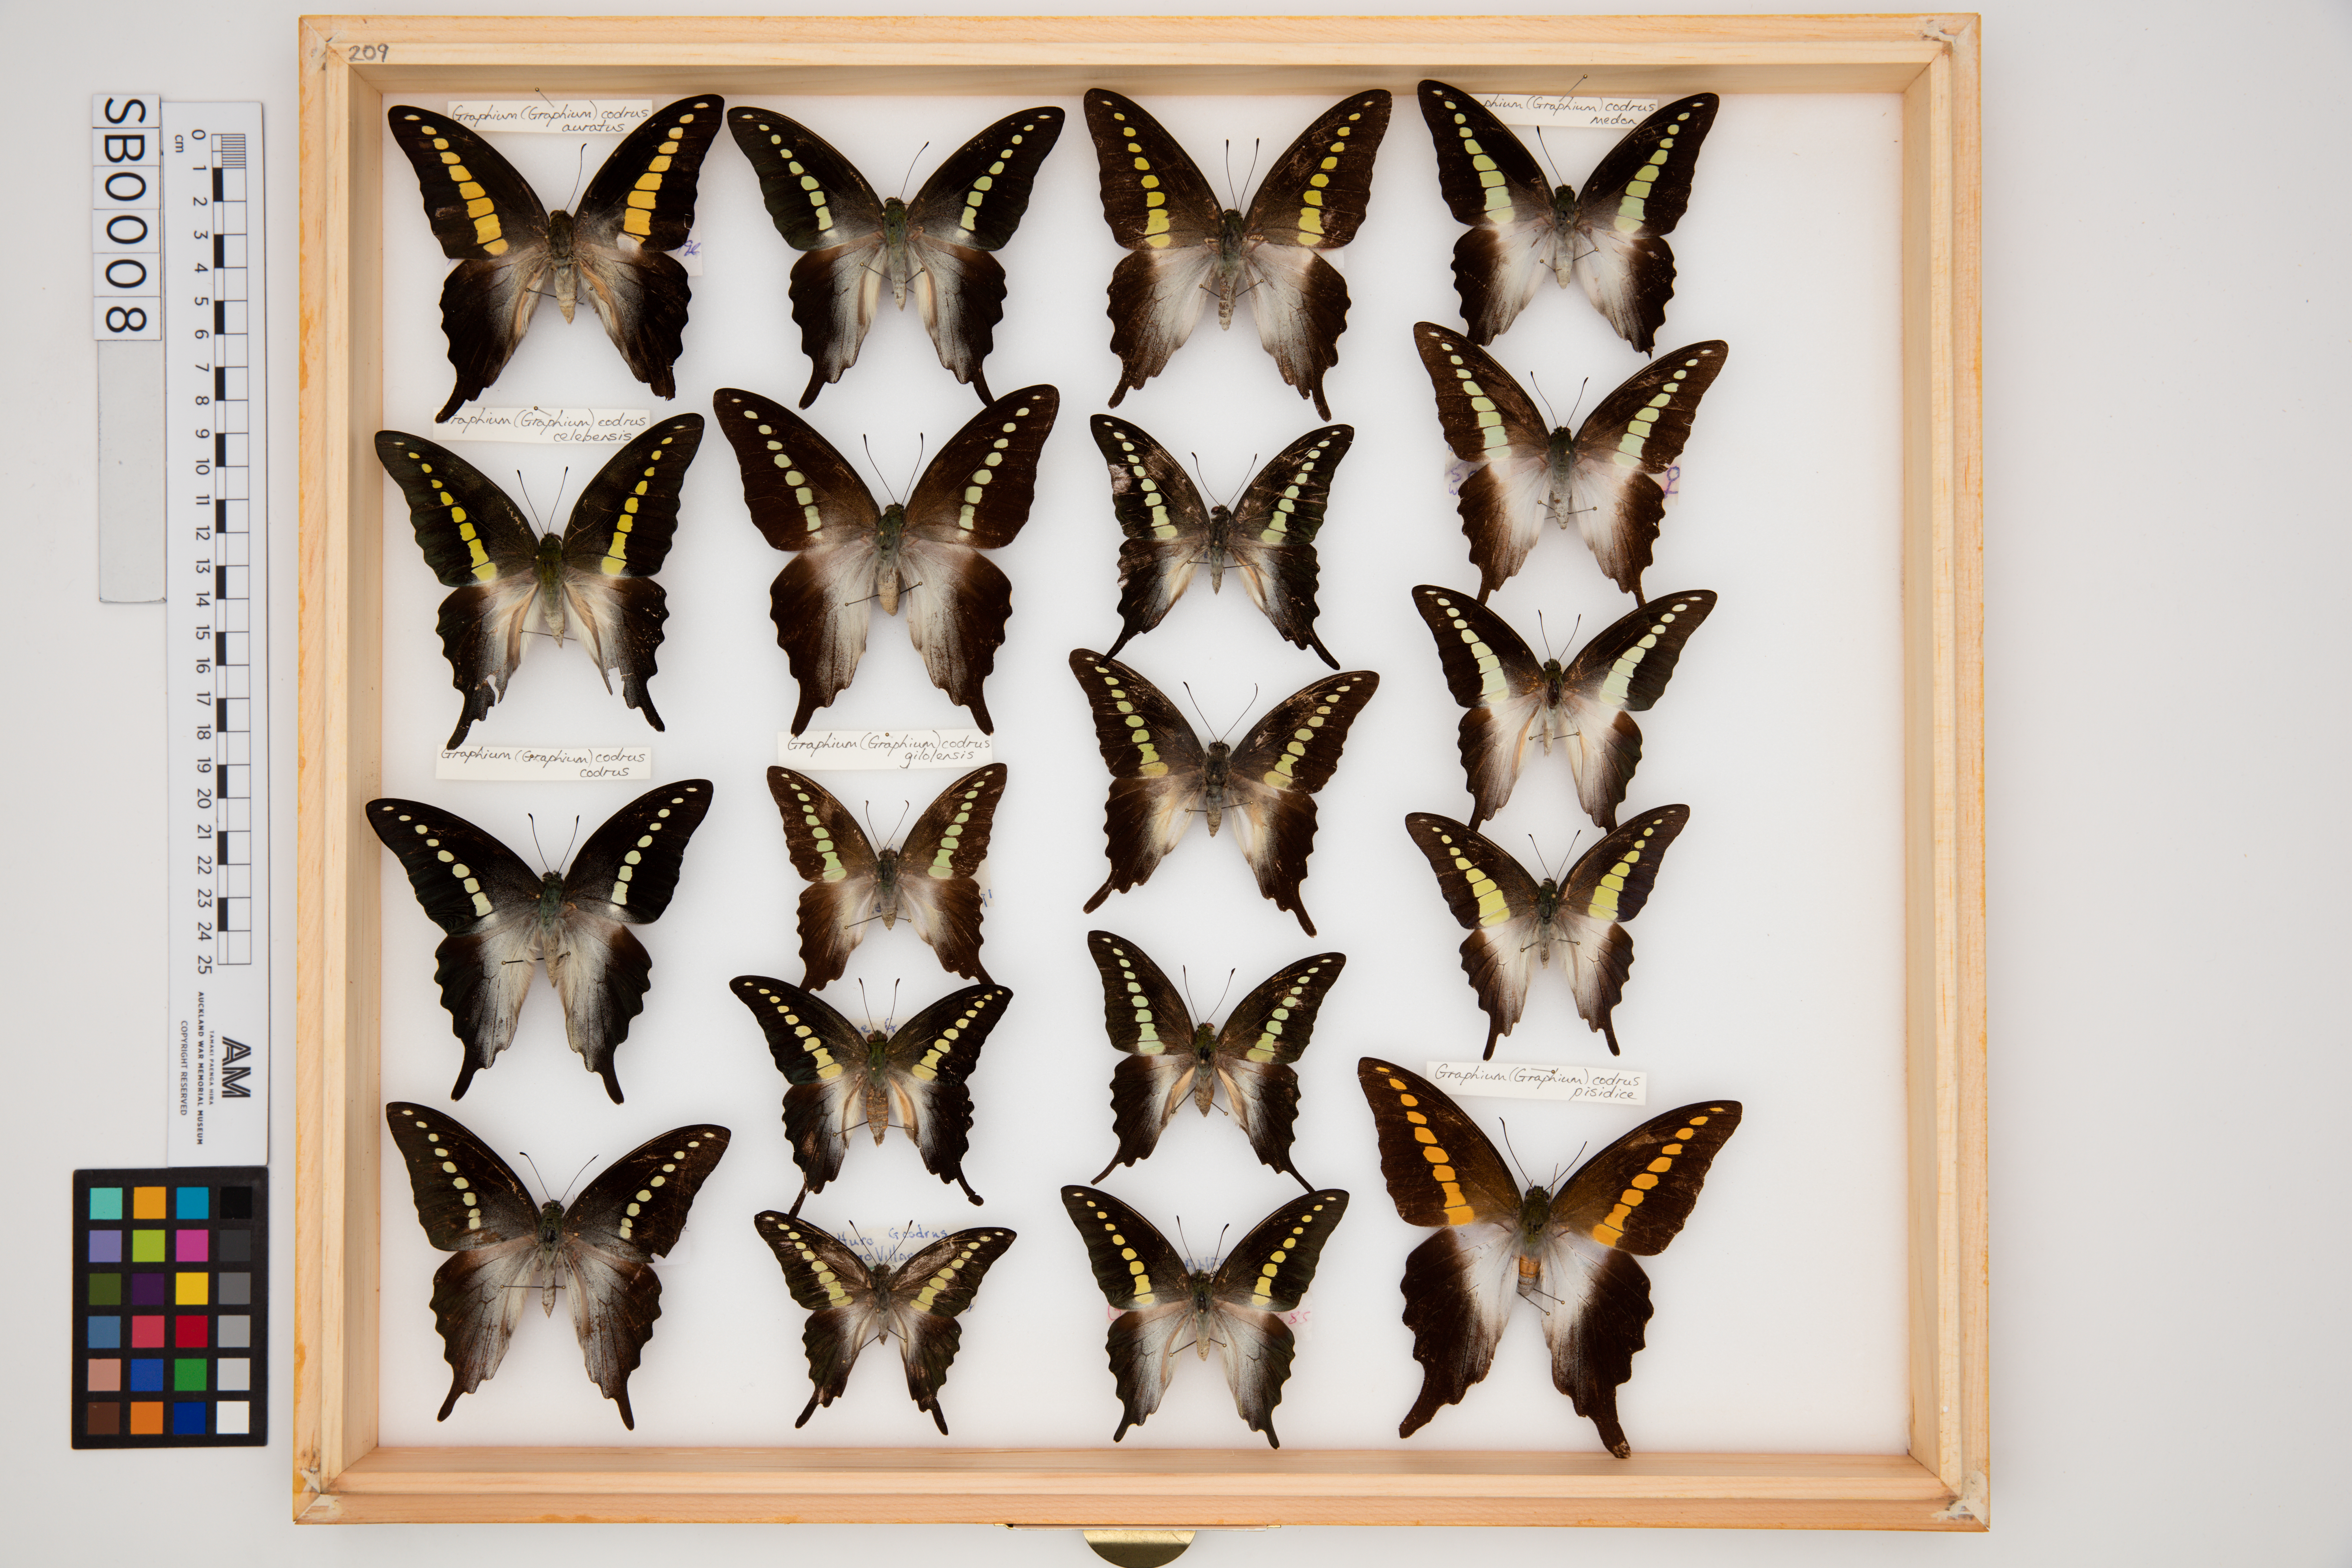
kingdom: Animalia
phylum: Arthropoda
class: Insecta
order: Lepidoptera
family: Papilionidae
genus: Graphium
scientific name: Graphium codrus
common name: Olive triangle
